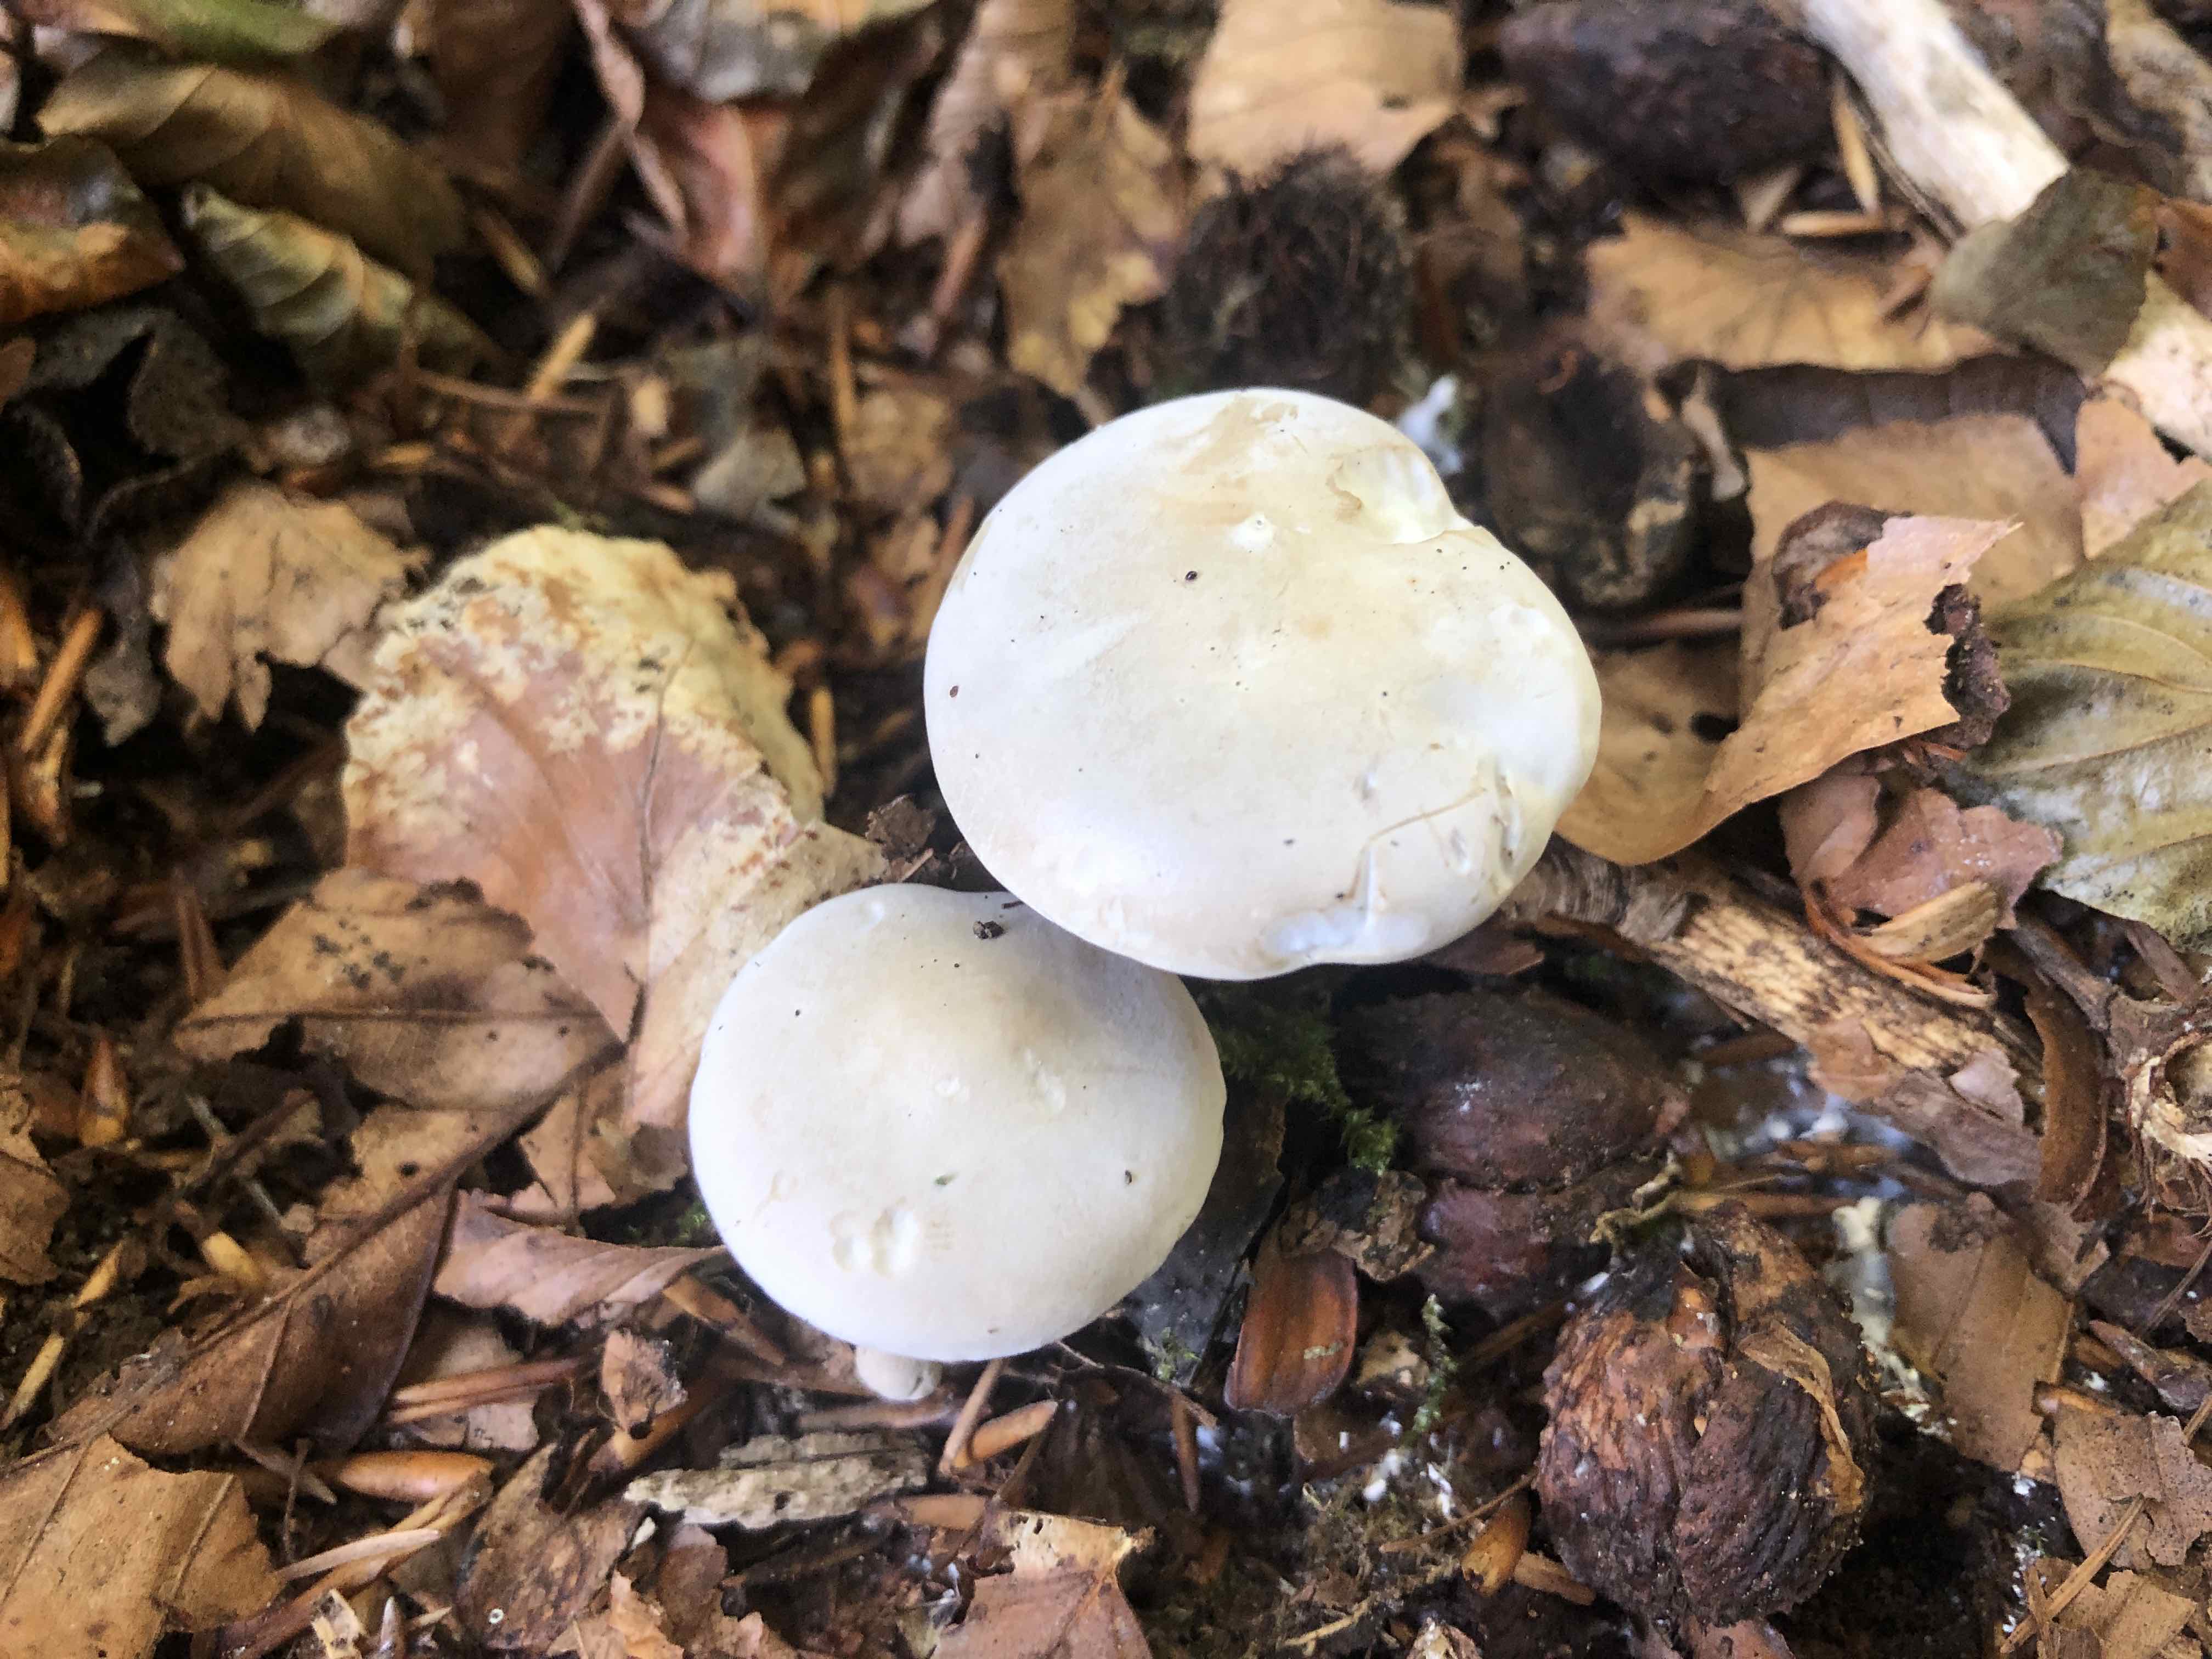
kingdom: Fungi
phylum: Basidiomycota
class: Agaricomycetes
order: Agaricales
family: Entolomataceae
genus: Clitopilus
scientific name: Clitopilus prunulus
